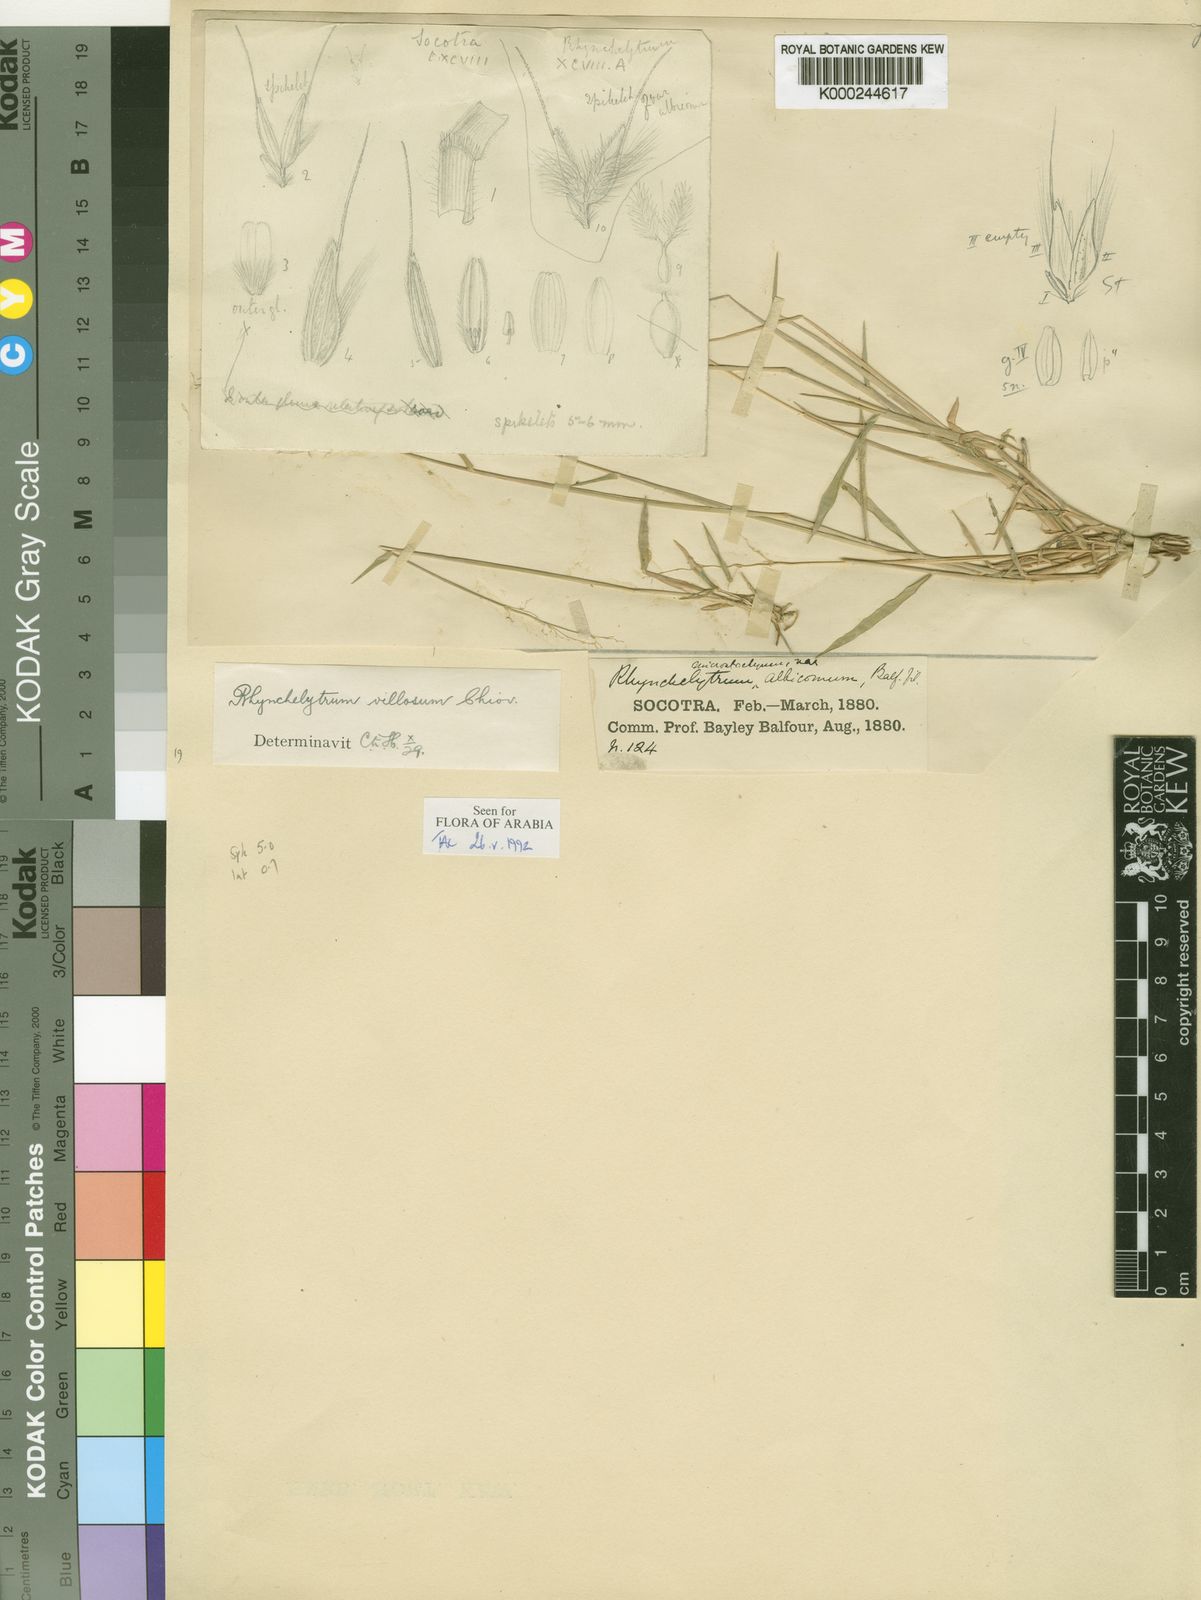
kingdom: Plantae
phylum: Tracheophyta
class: Liliopsida
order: Poales
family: Poaceae
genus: Melinis
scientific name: Melinis repens
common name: Rose natal grass
